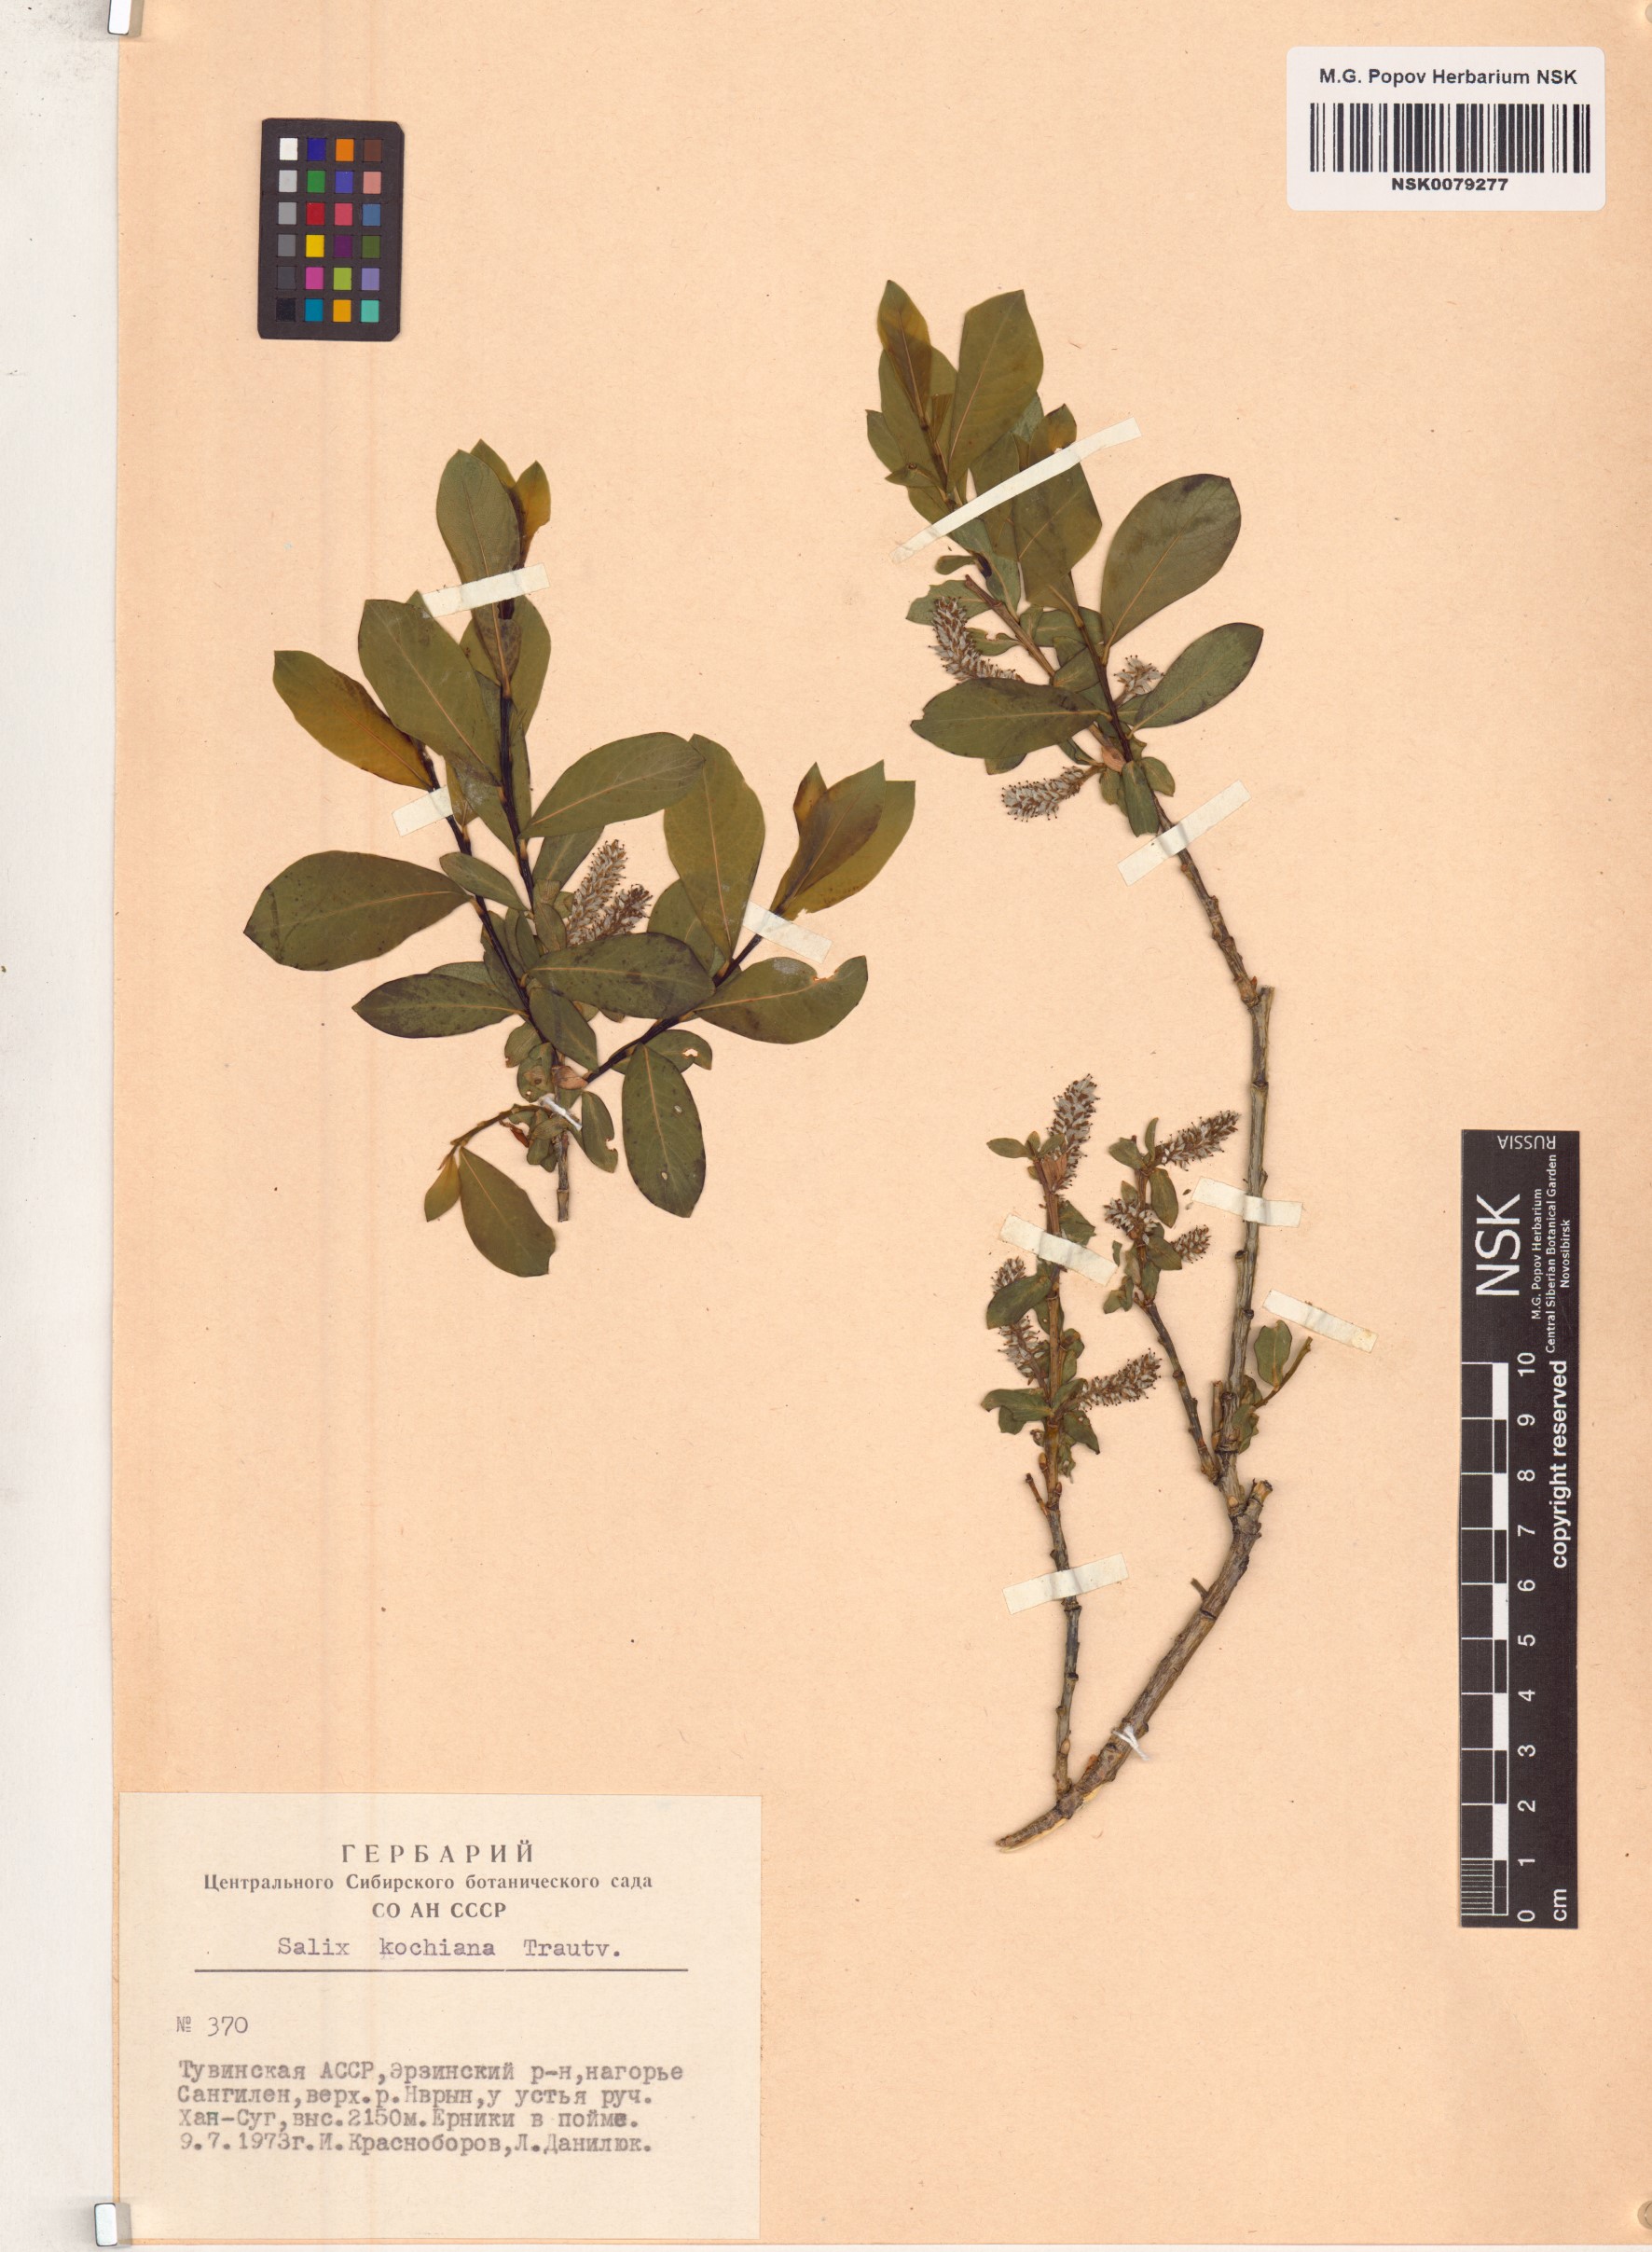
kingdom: Plantae
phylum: Tracheophyta
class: Magnoliopsida
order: Malpighiales
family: Salicaceae
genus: Salix
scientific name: Salix kochiana
